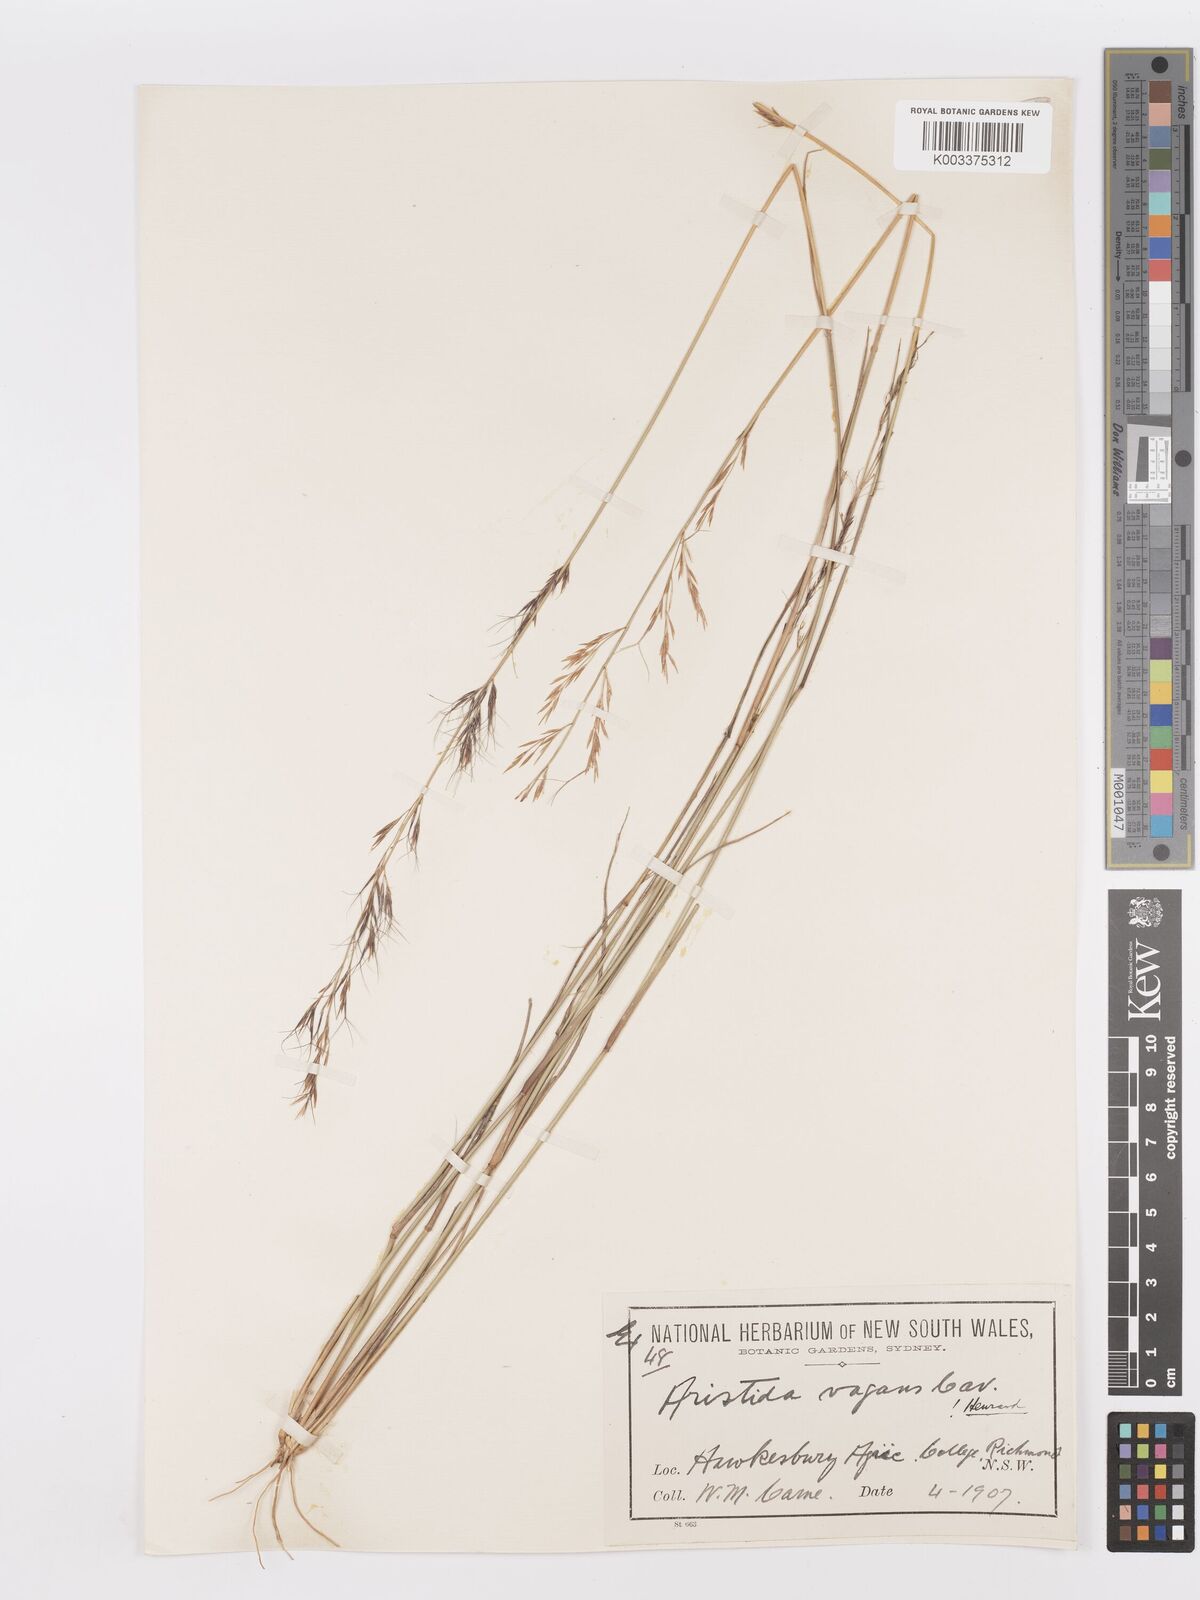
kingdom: Plantae
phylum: Tracheophyta
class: Liliopsida
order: Poales
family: Poaceae
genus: Aristida
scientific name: Aristida vagans
